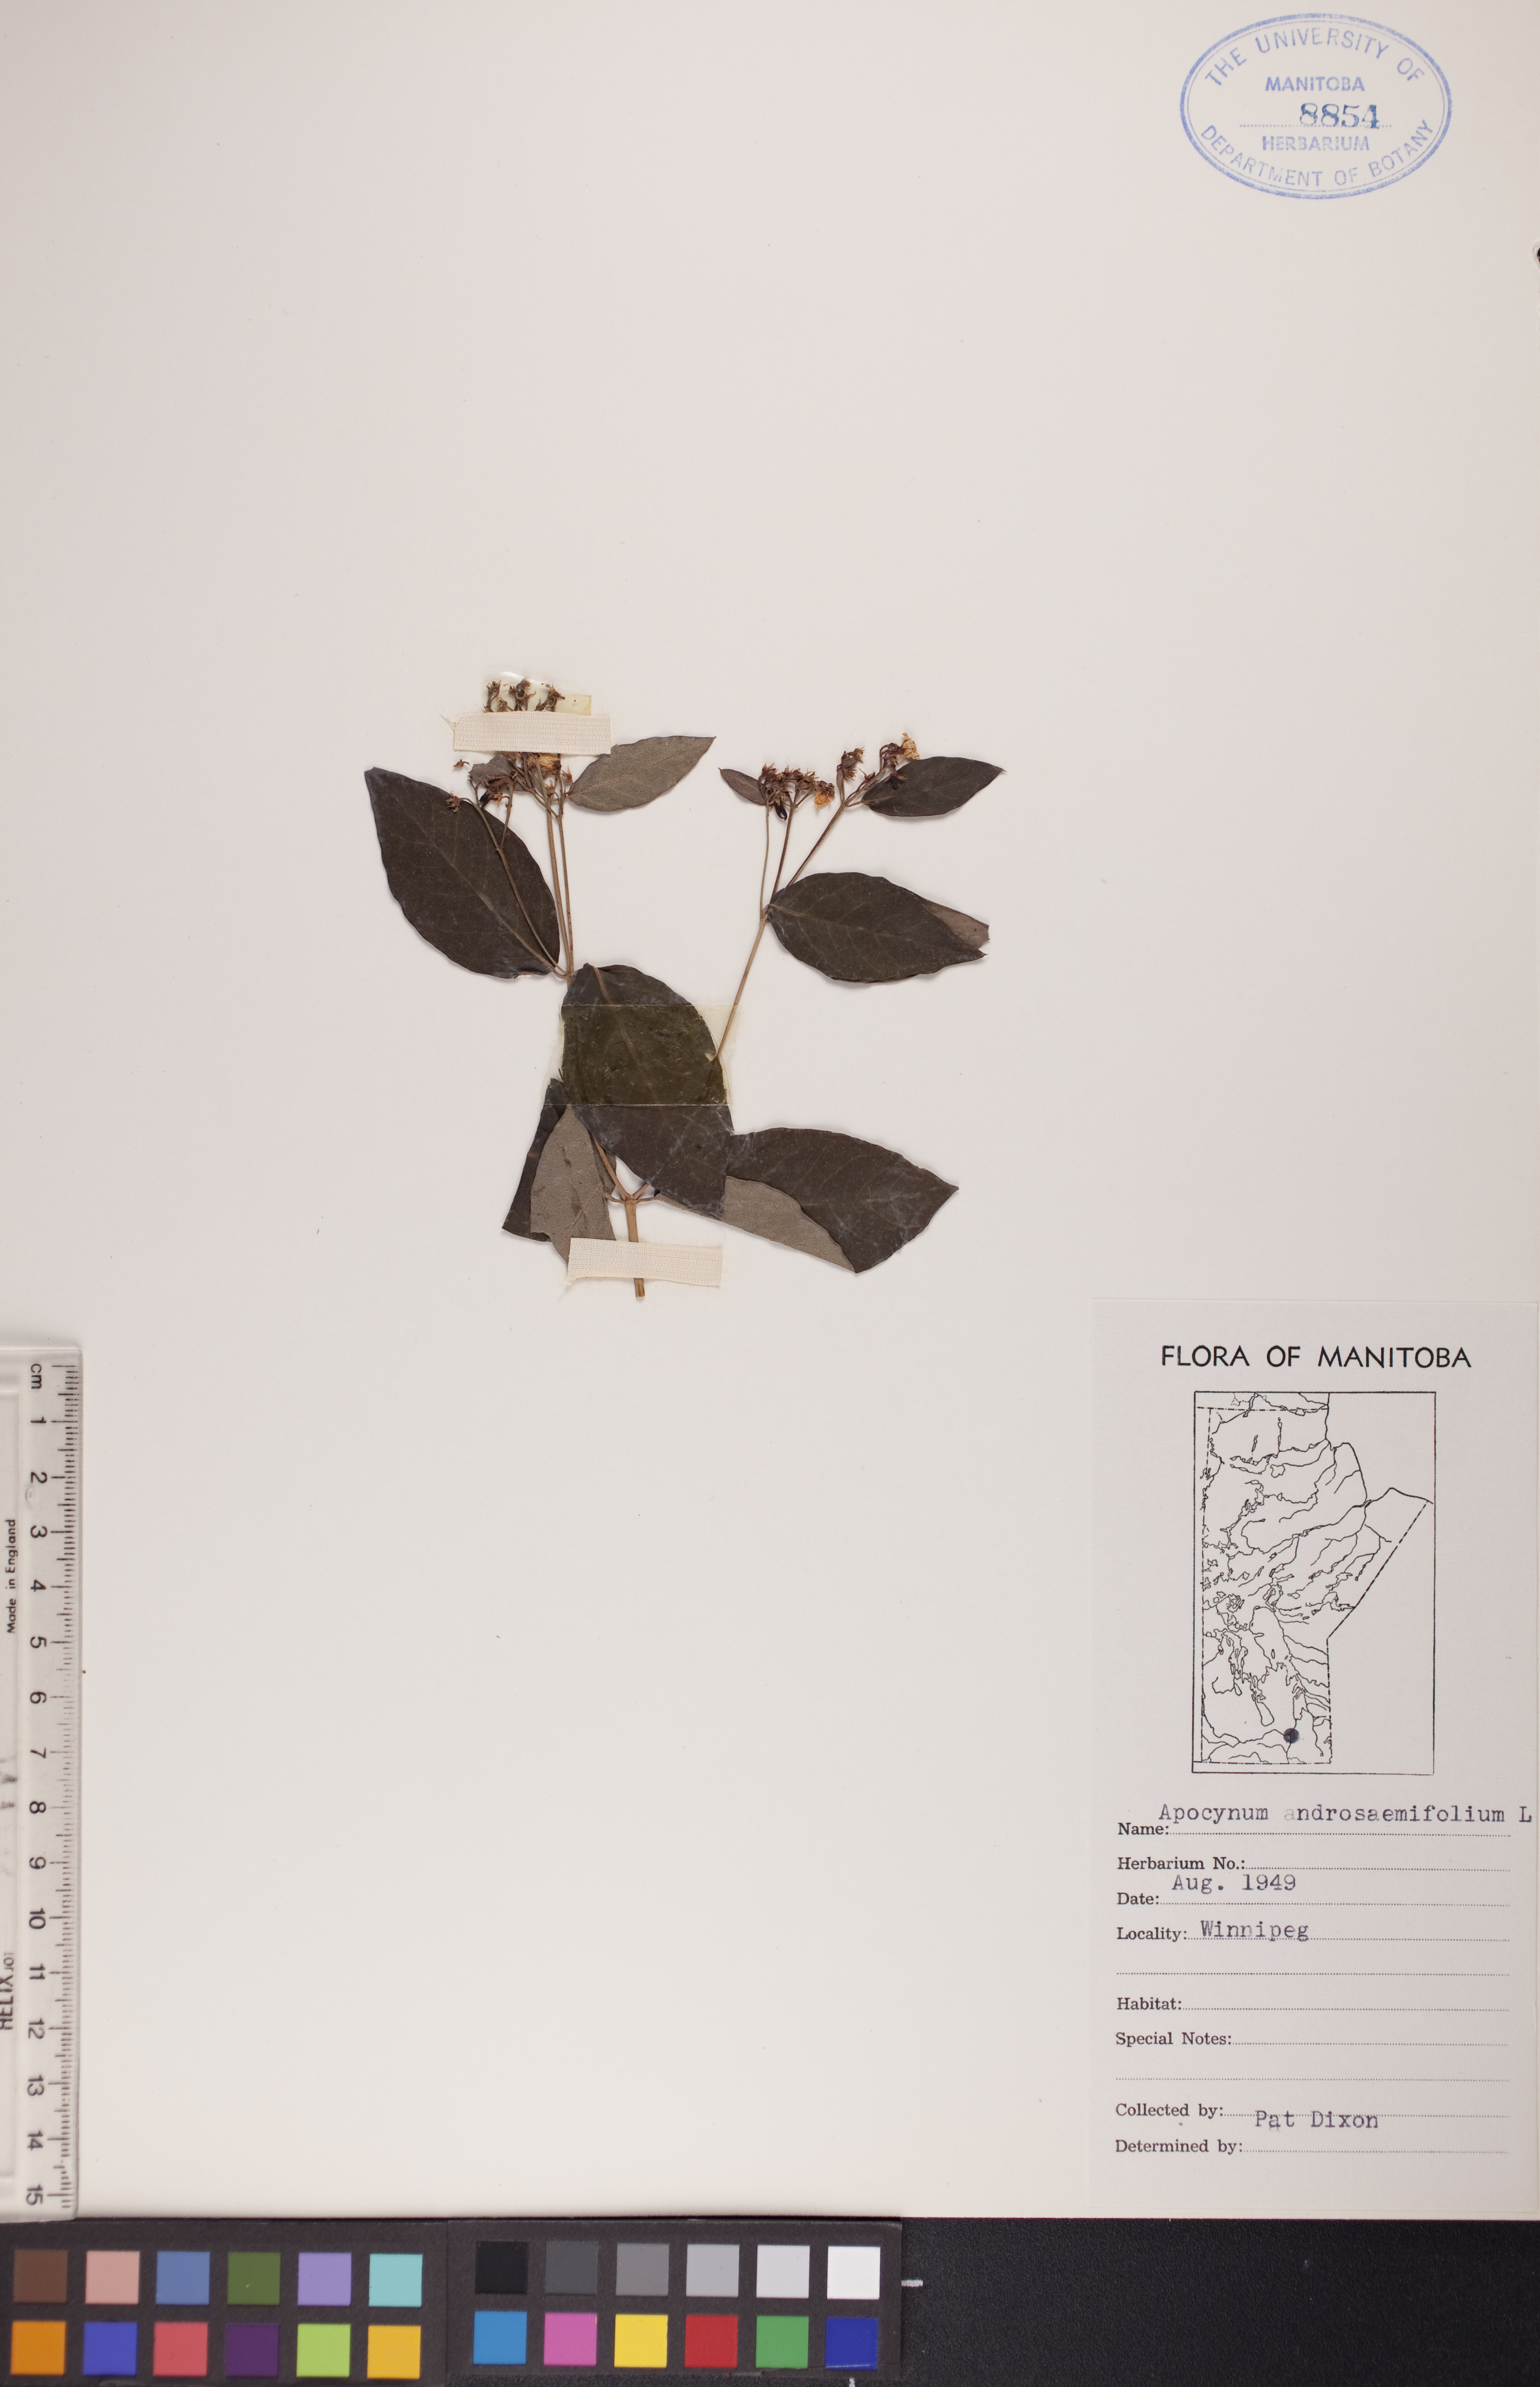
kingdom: Plantae
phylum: Tracheophyta
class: Magnoliopsida
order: Gentianales
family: Apocynaceae
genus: Apocynum
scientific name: Apocynum androsaemifolium
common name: Spreading dogbane
